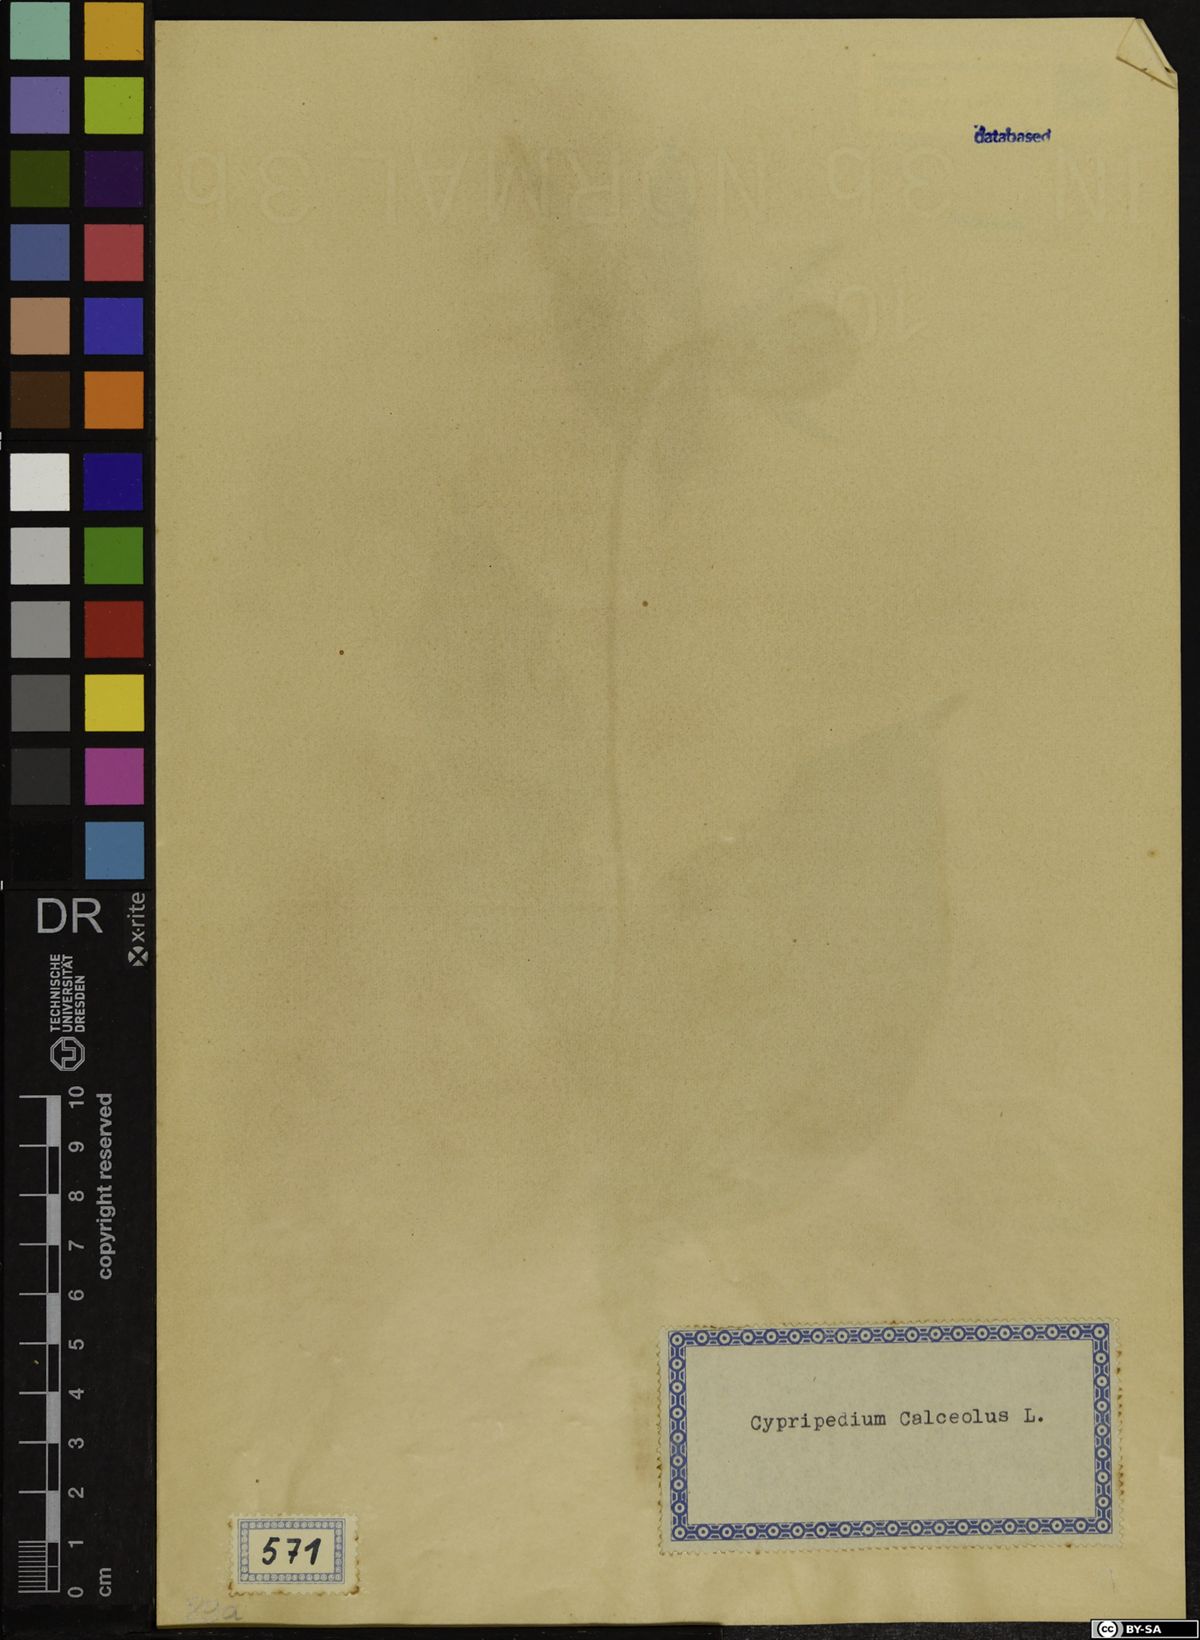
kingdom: Plantae
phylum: Tracheophyta
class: Liliopsida
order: Asparagales
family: Orchidaceae
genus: Cypripedium
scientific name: Cypripedium calceolus
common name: Lady's-slipper
